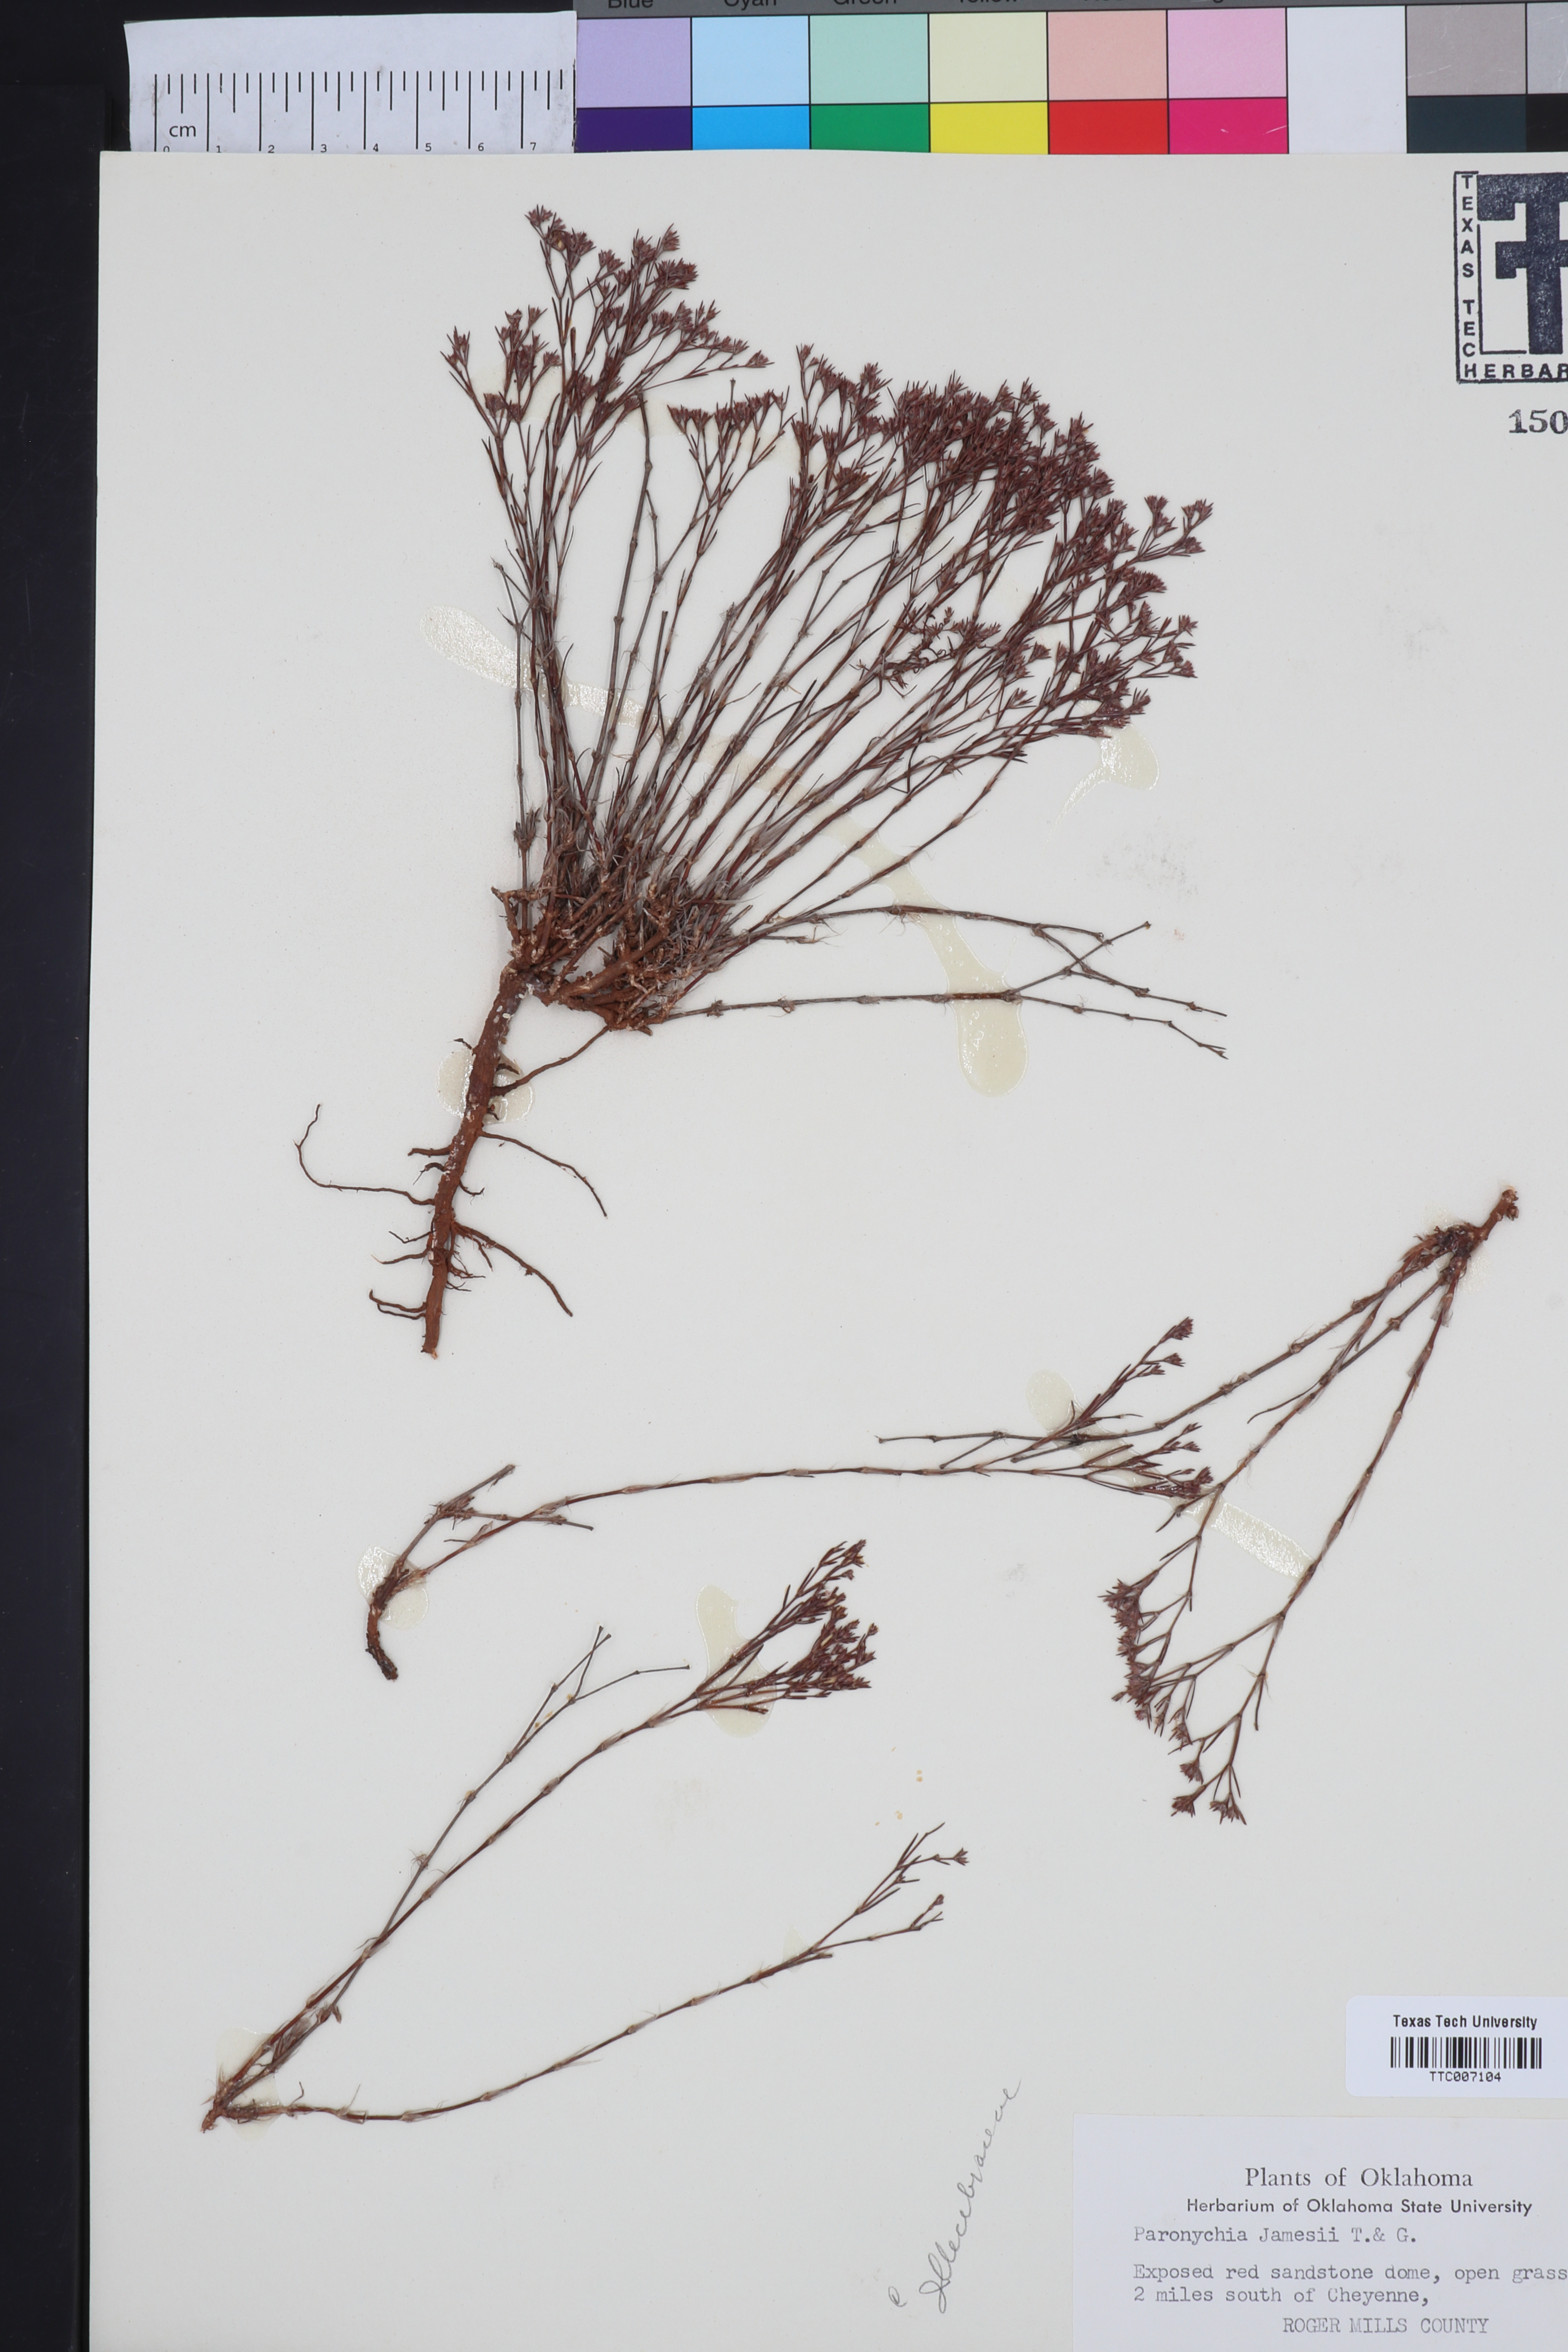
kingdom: Plantae
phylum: Tracheophyta
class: Magnoliopsida
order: Caryophyllales
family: Caryophyllaceae
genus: Paronychia
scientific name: Paronychia jamesii
